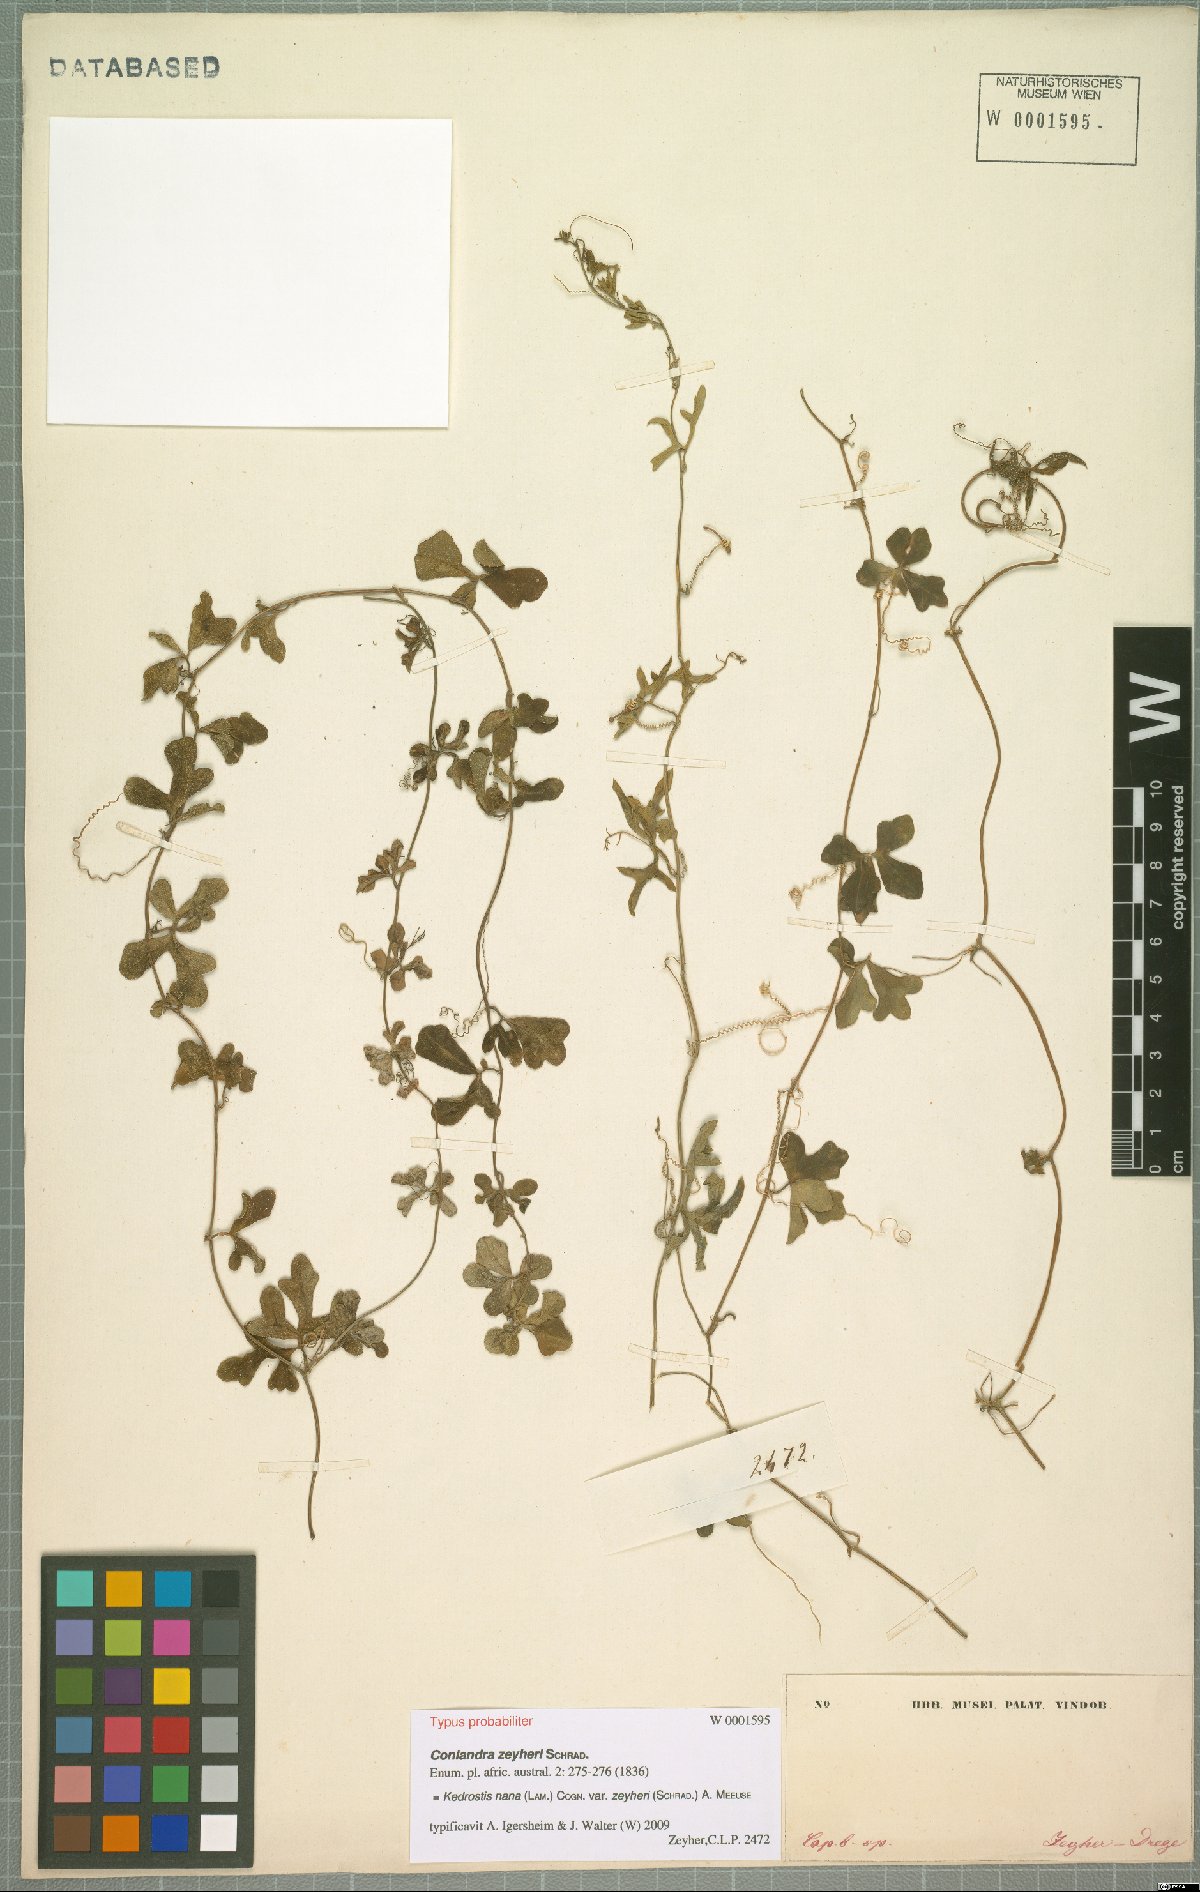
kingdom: Plantae
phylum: Tracheophyta
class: Magnoliopsida
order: Cucurbitales
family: Cucurbitaceae
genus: Kedrostis
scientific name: Kedrostis nana
